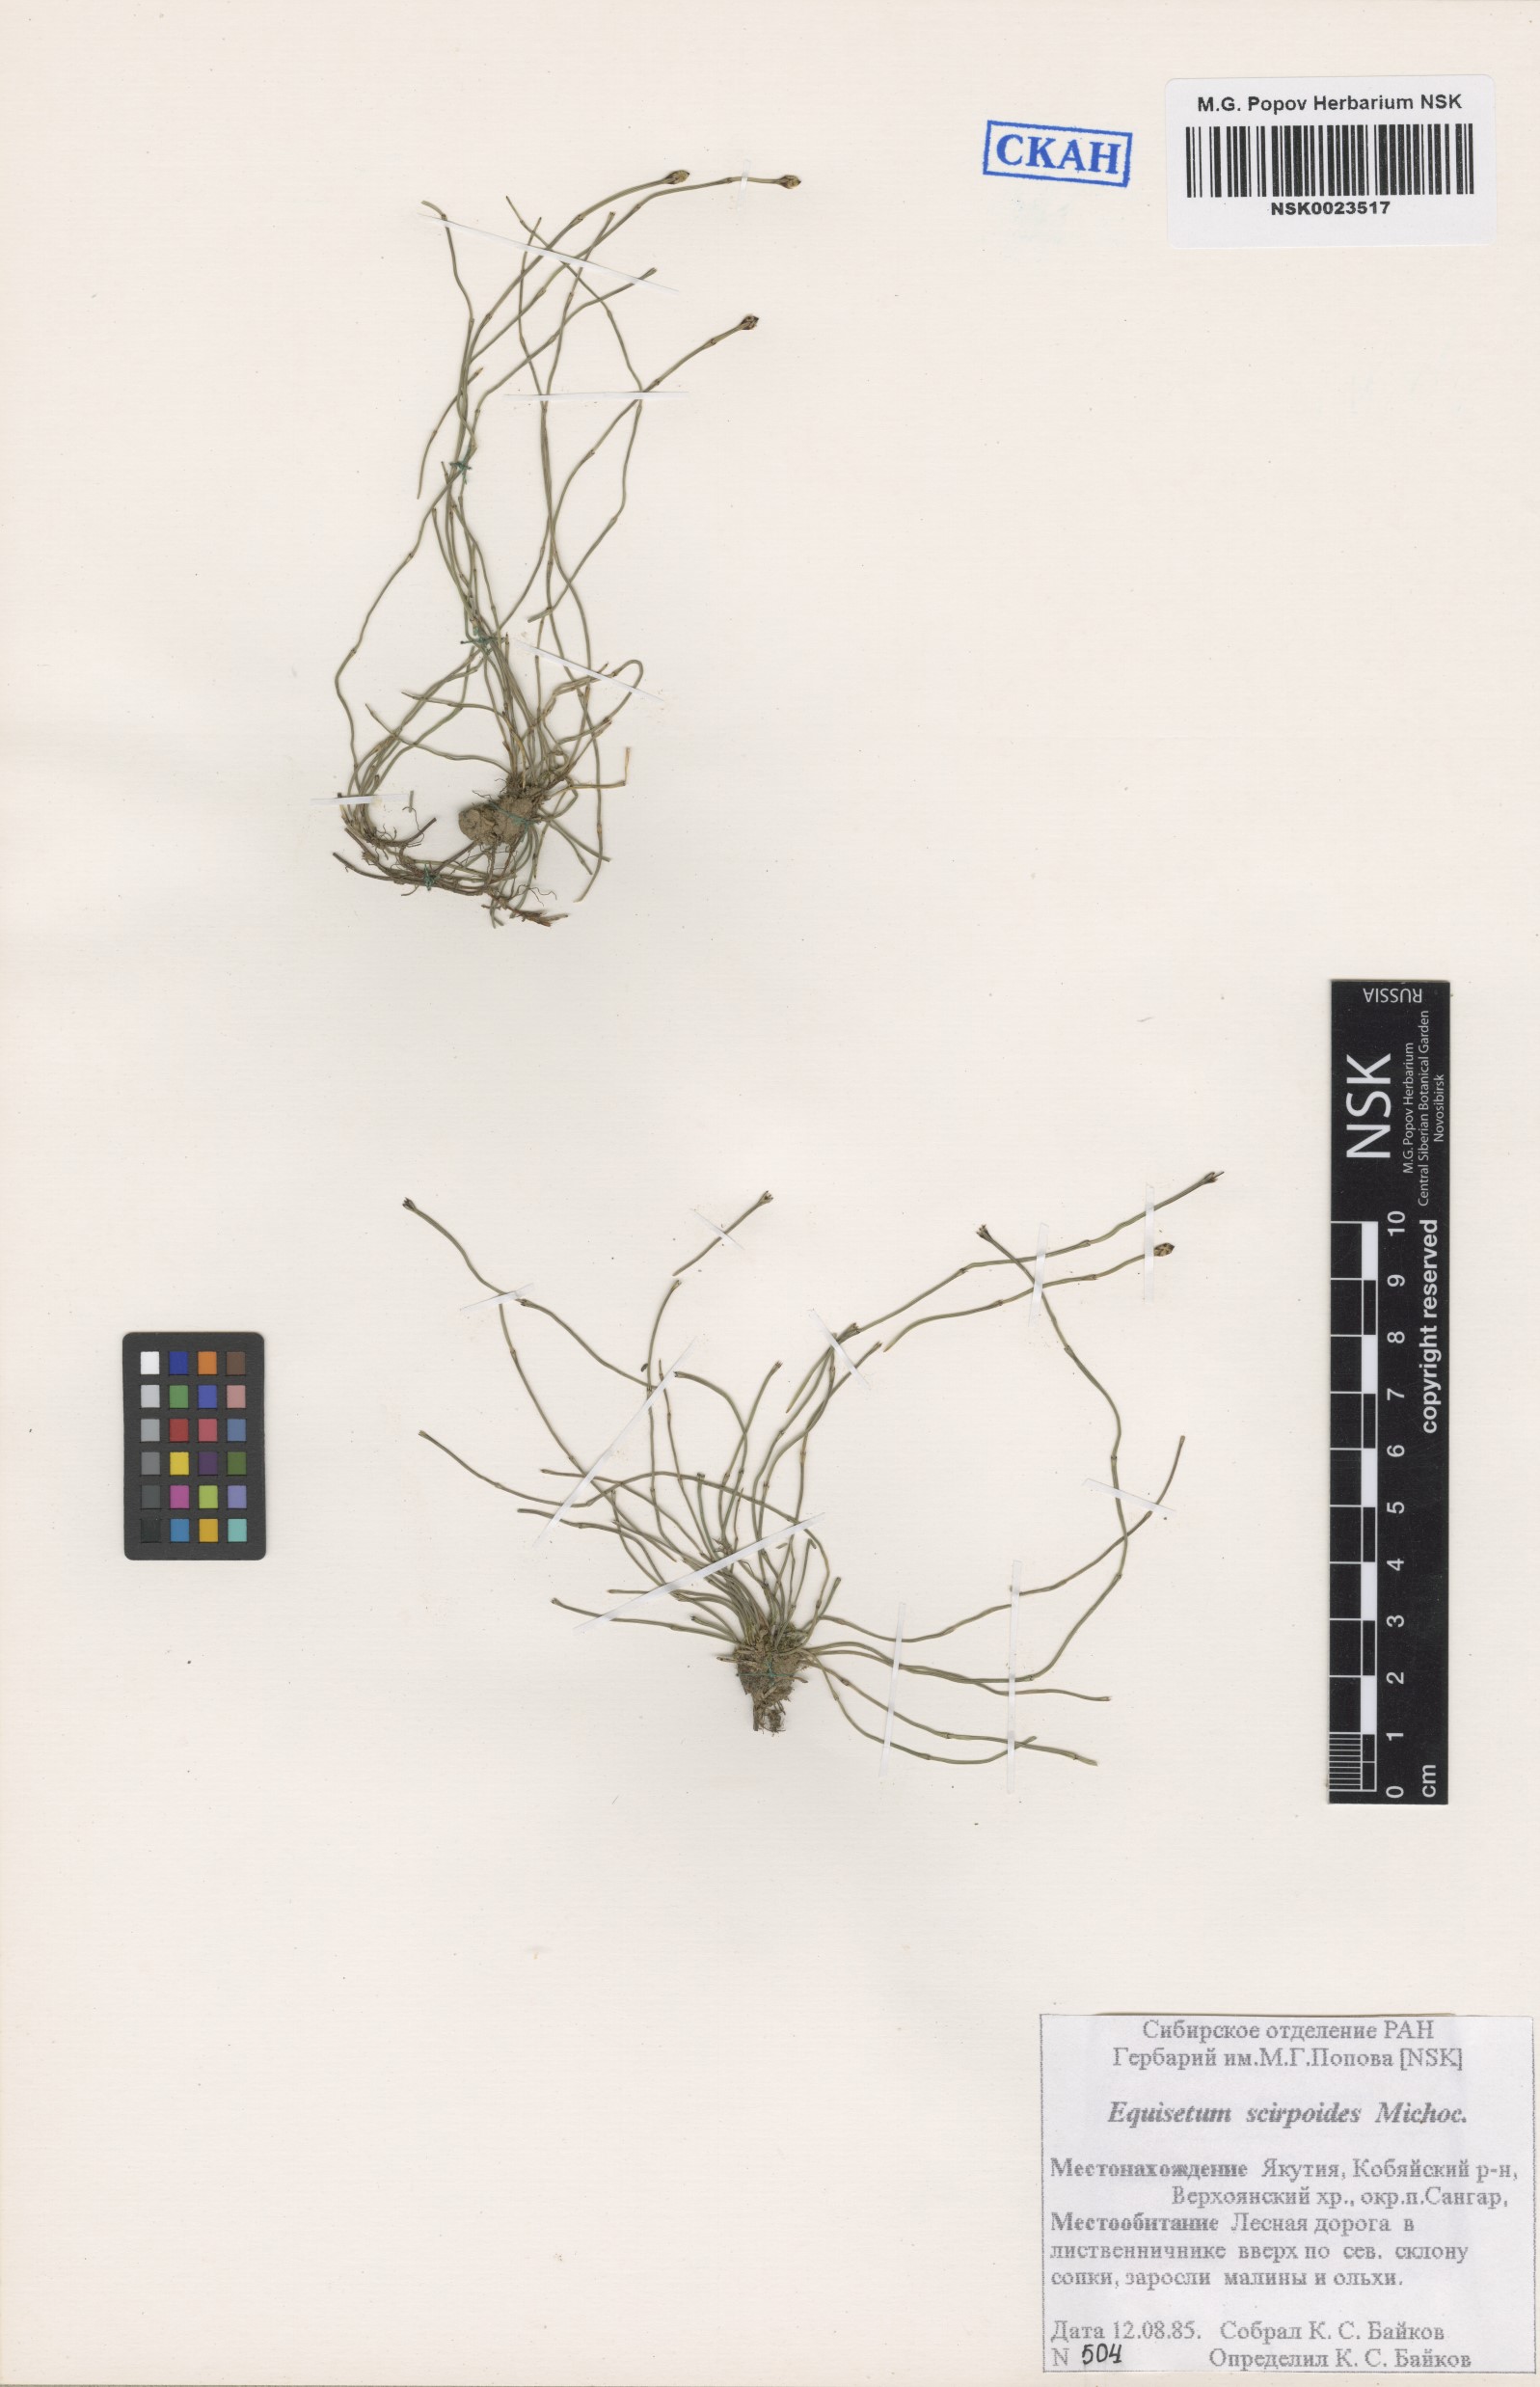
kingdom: Plantae
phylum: Tracheophyta
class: Polypodiopsida
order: Equisetales
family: Equisetaceae
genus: Equisetum
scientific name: Equisetum scirpoides
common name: Delicate horsetail
